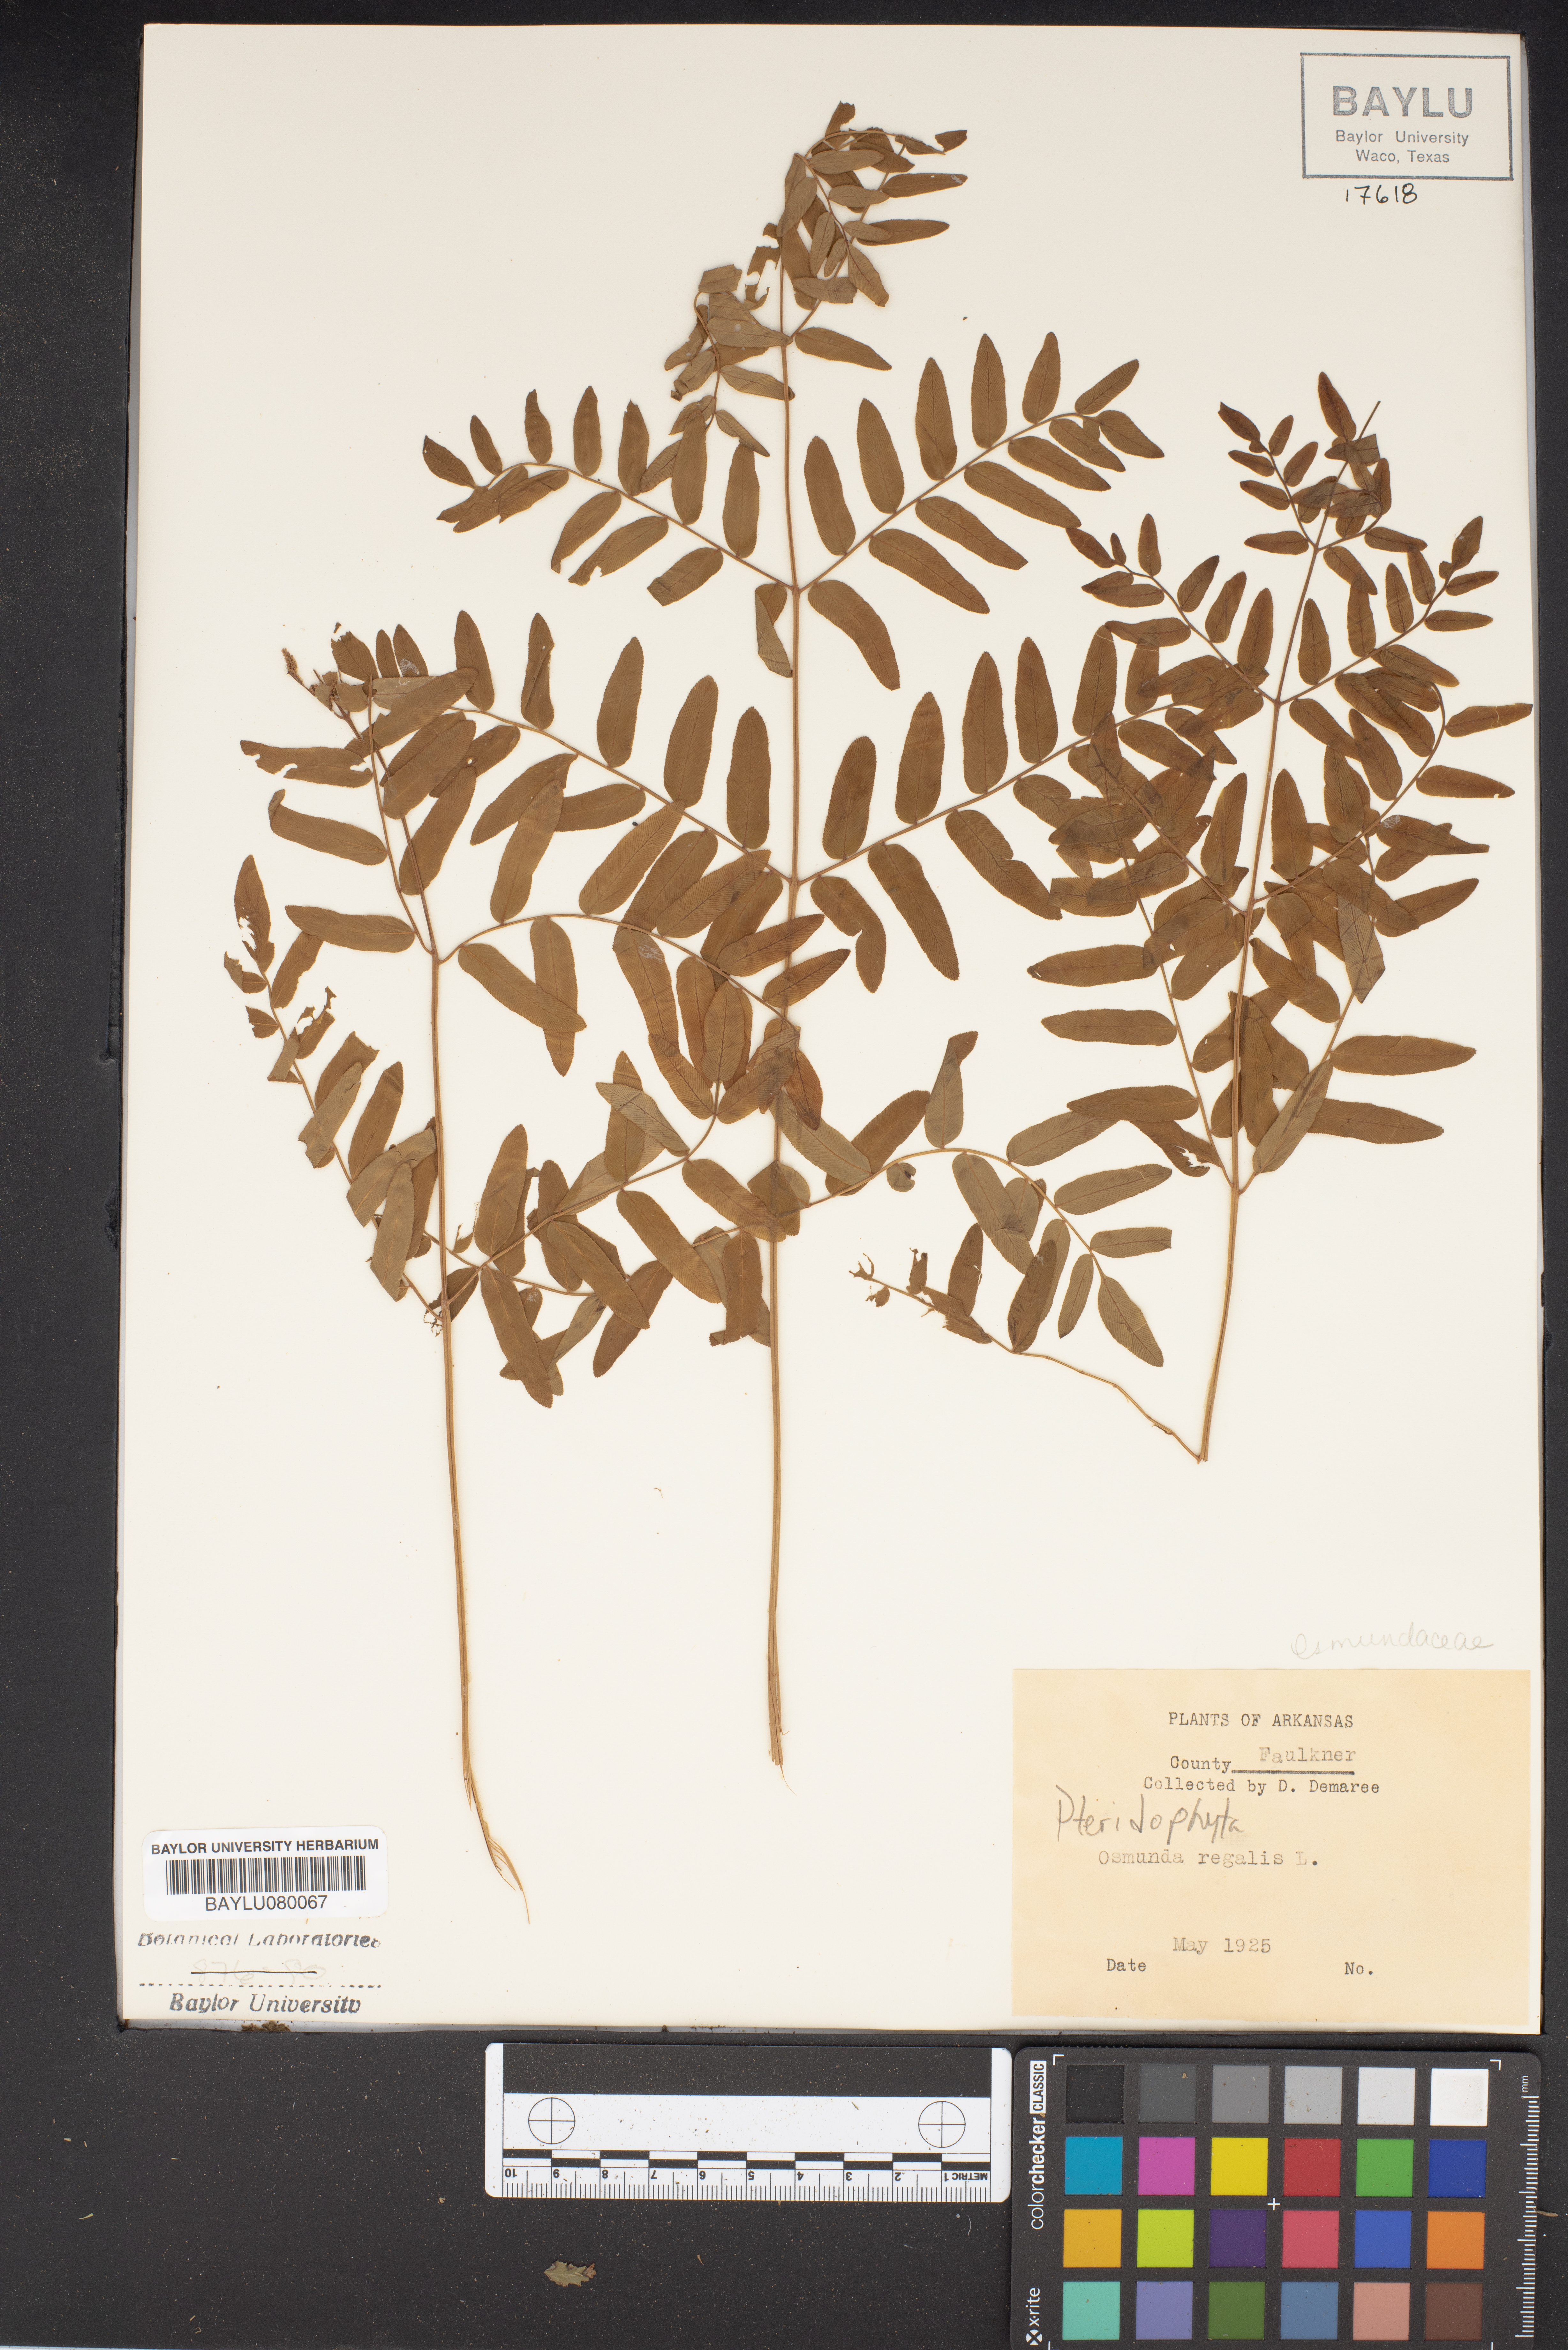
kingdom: Plantae
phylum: Tracheophyta
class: Polypodiopsida
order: Osmundales
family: Osmundaceae
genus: Osmunda
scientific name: Osmunda regalis
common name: Royal fern
